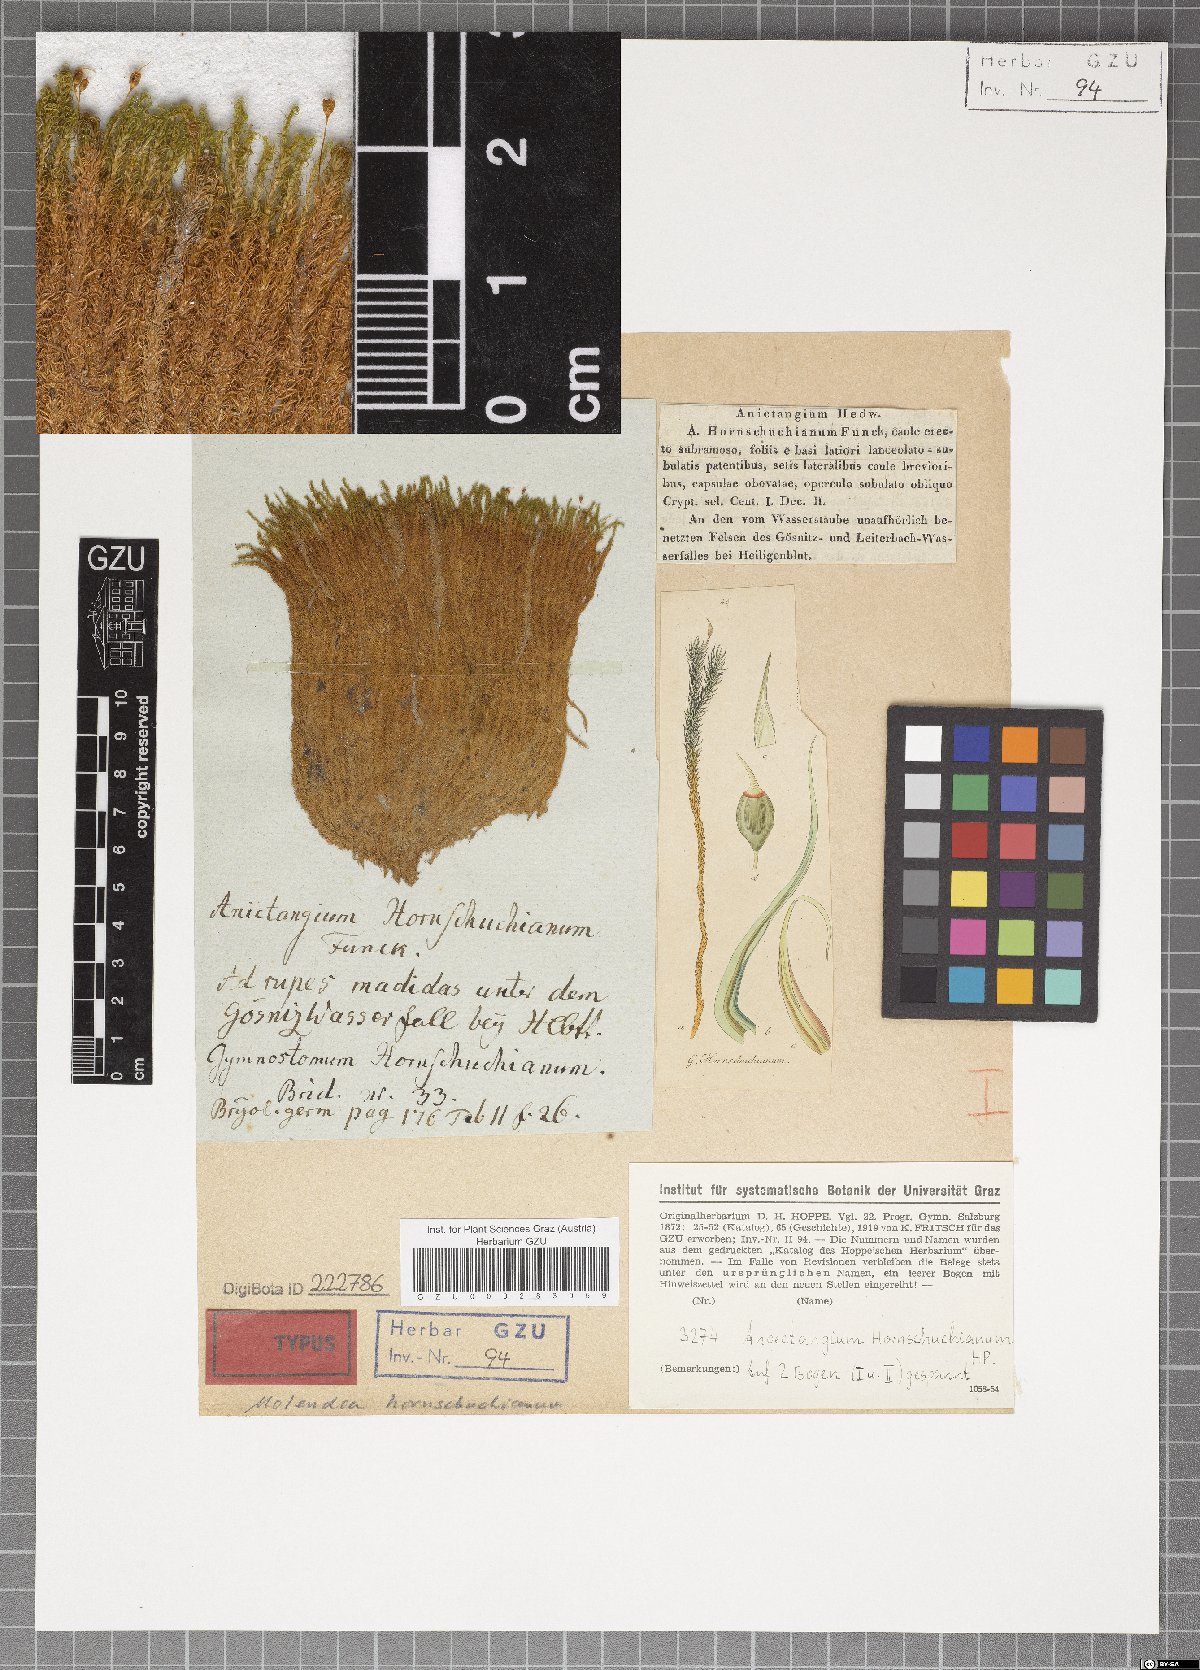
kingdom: Plantae
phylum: Bryophyta
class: Bryopsida
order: Pottiales
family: Pottiaceae
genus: Molendoa
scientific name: Molendoa hornschuchiana
